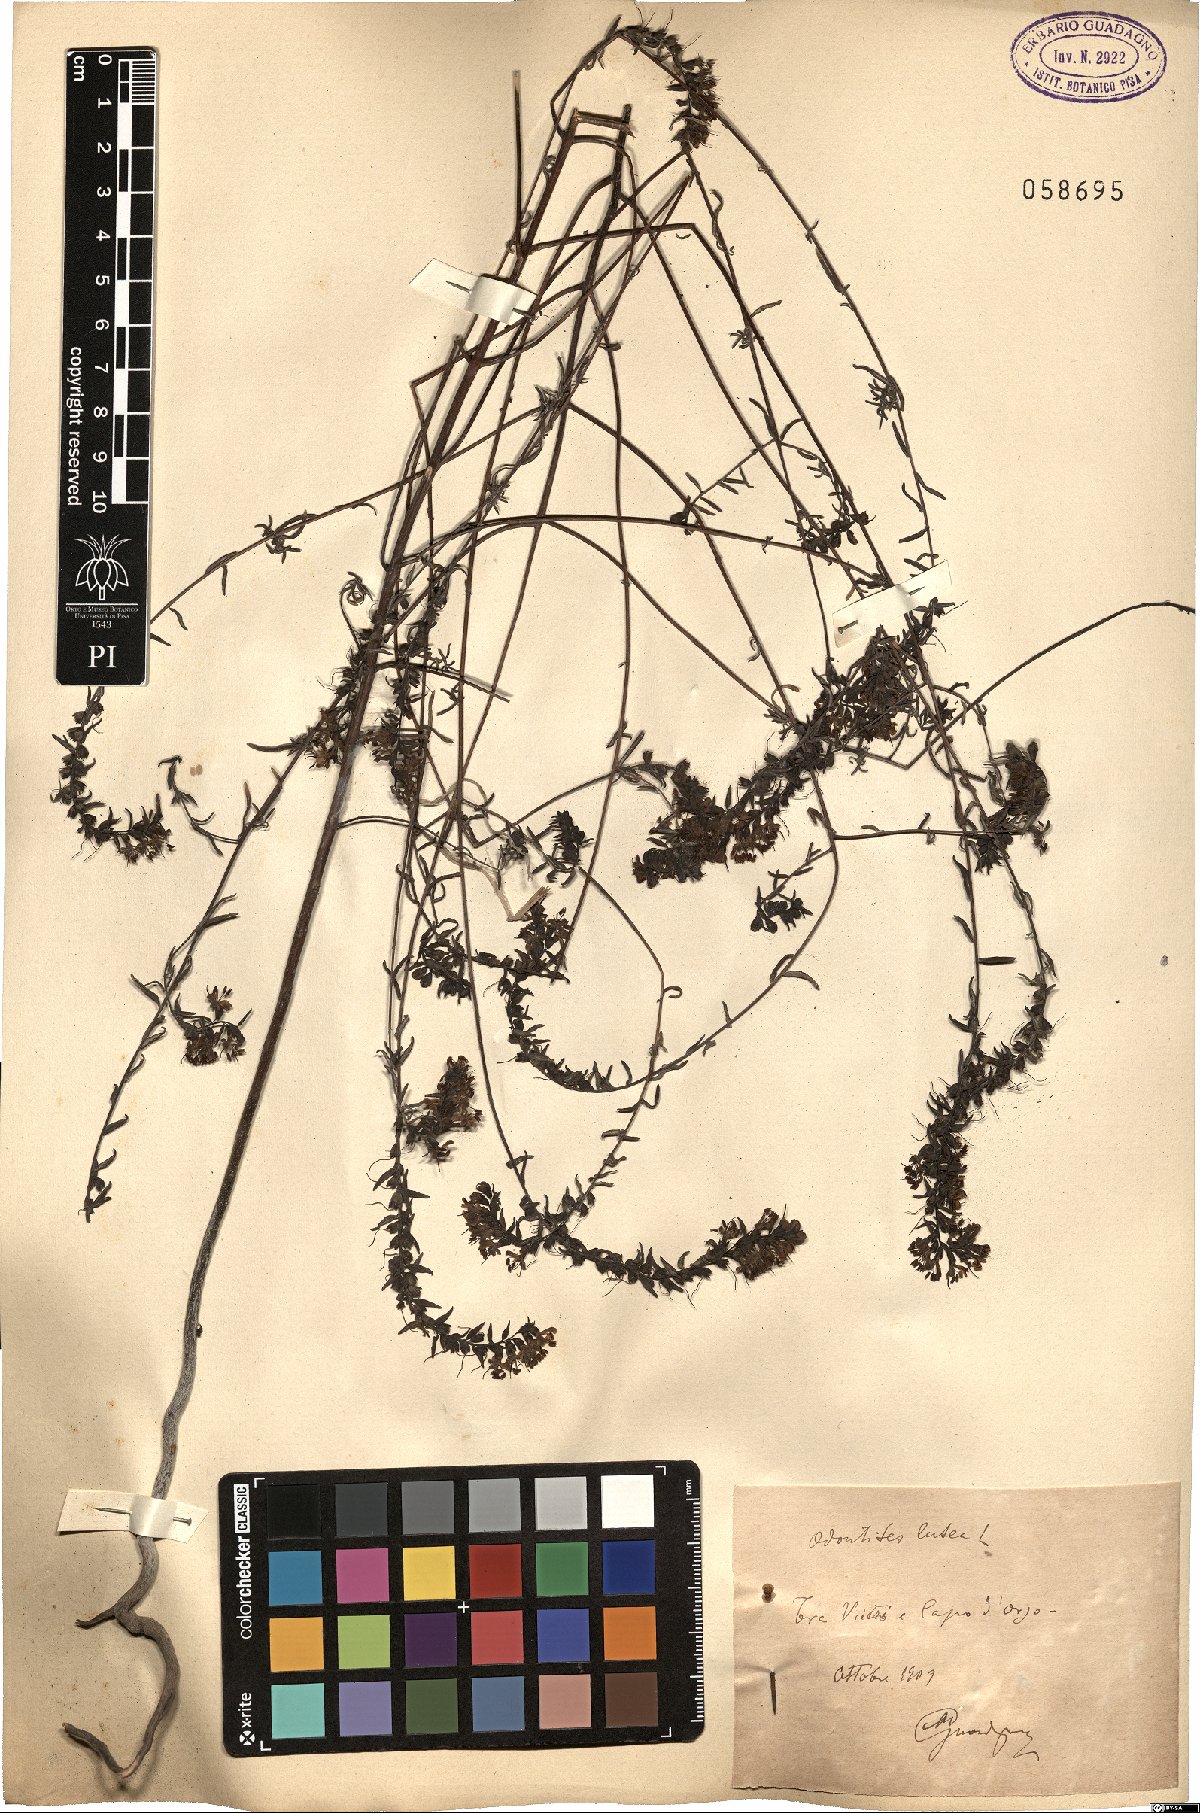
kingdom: Plantae
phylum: Tracheophyta
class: Magnoliopsida
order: Lamiales
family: Orobanchaceae
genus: Odontites
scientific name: Odontites luteus
